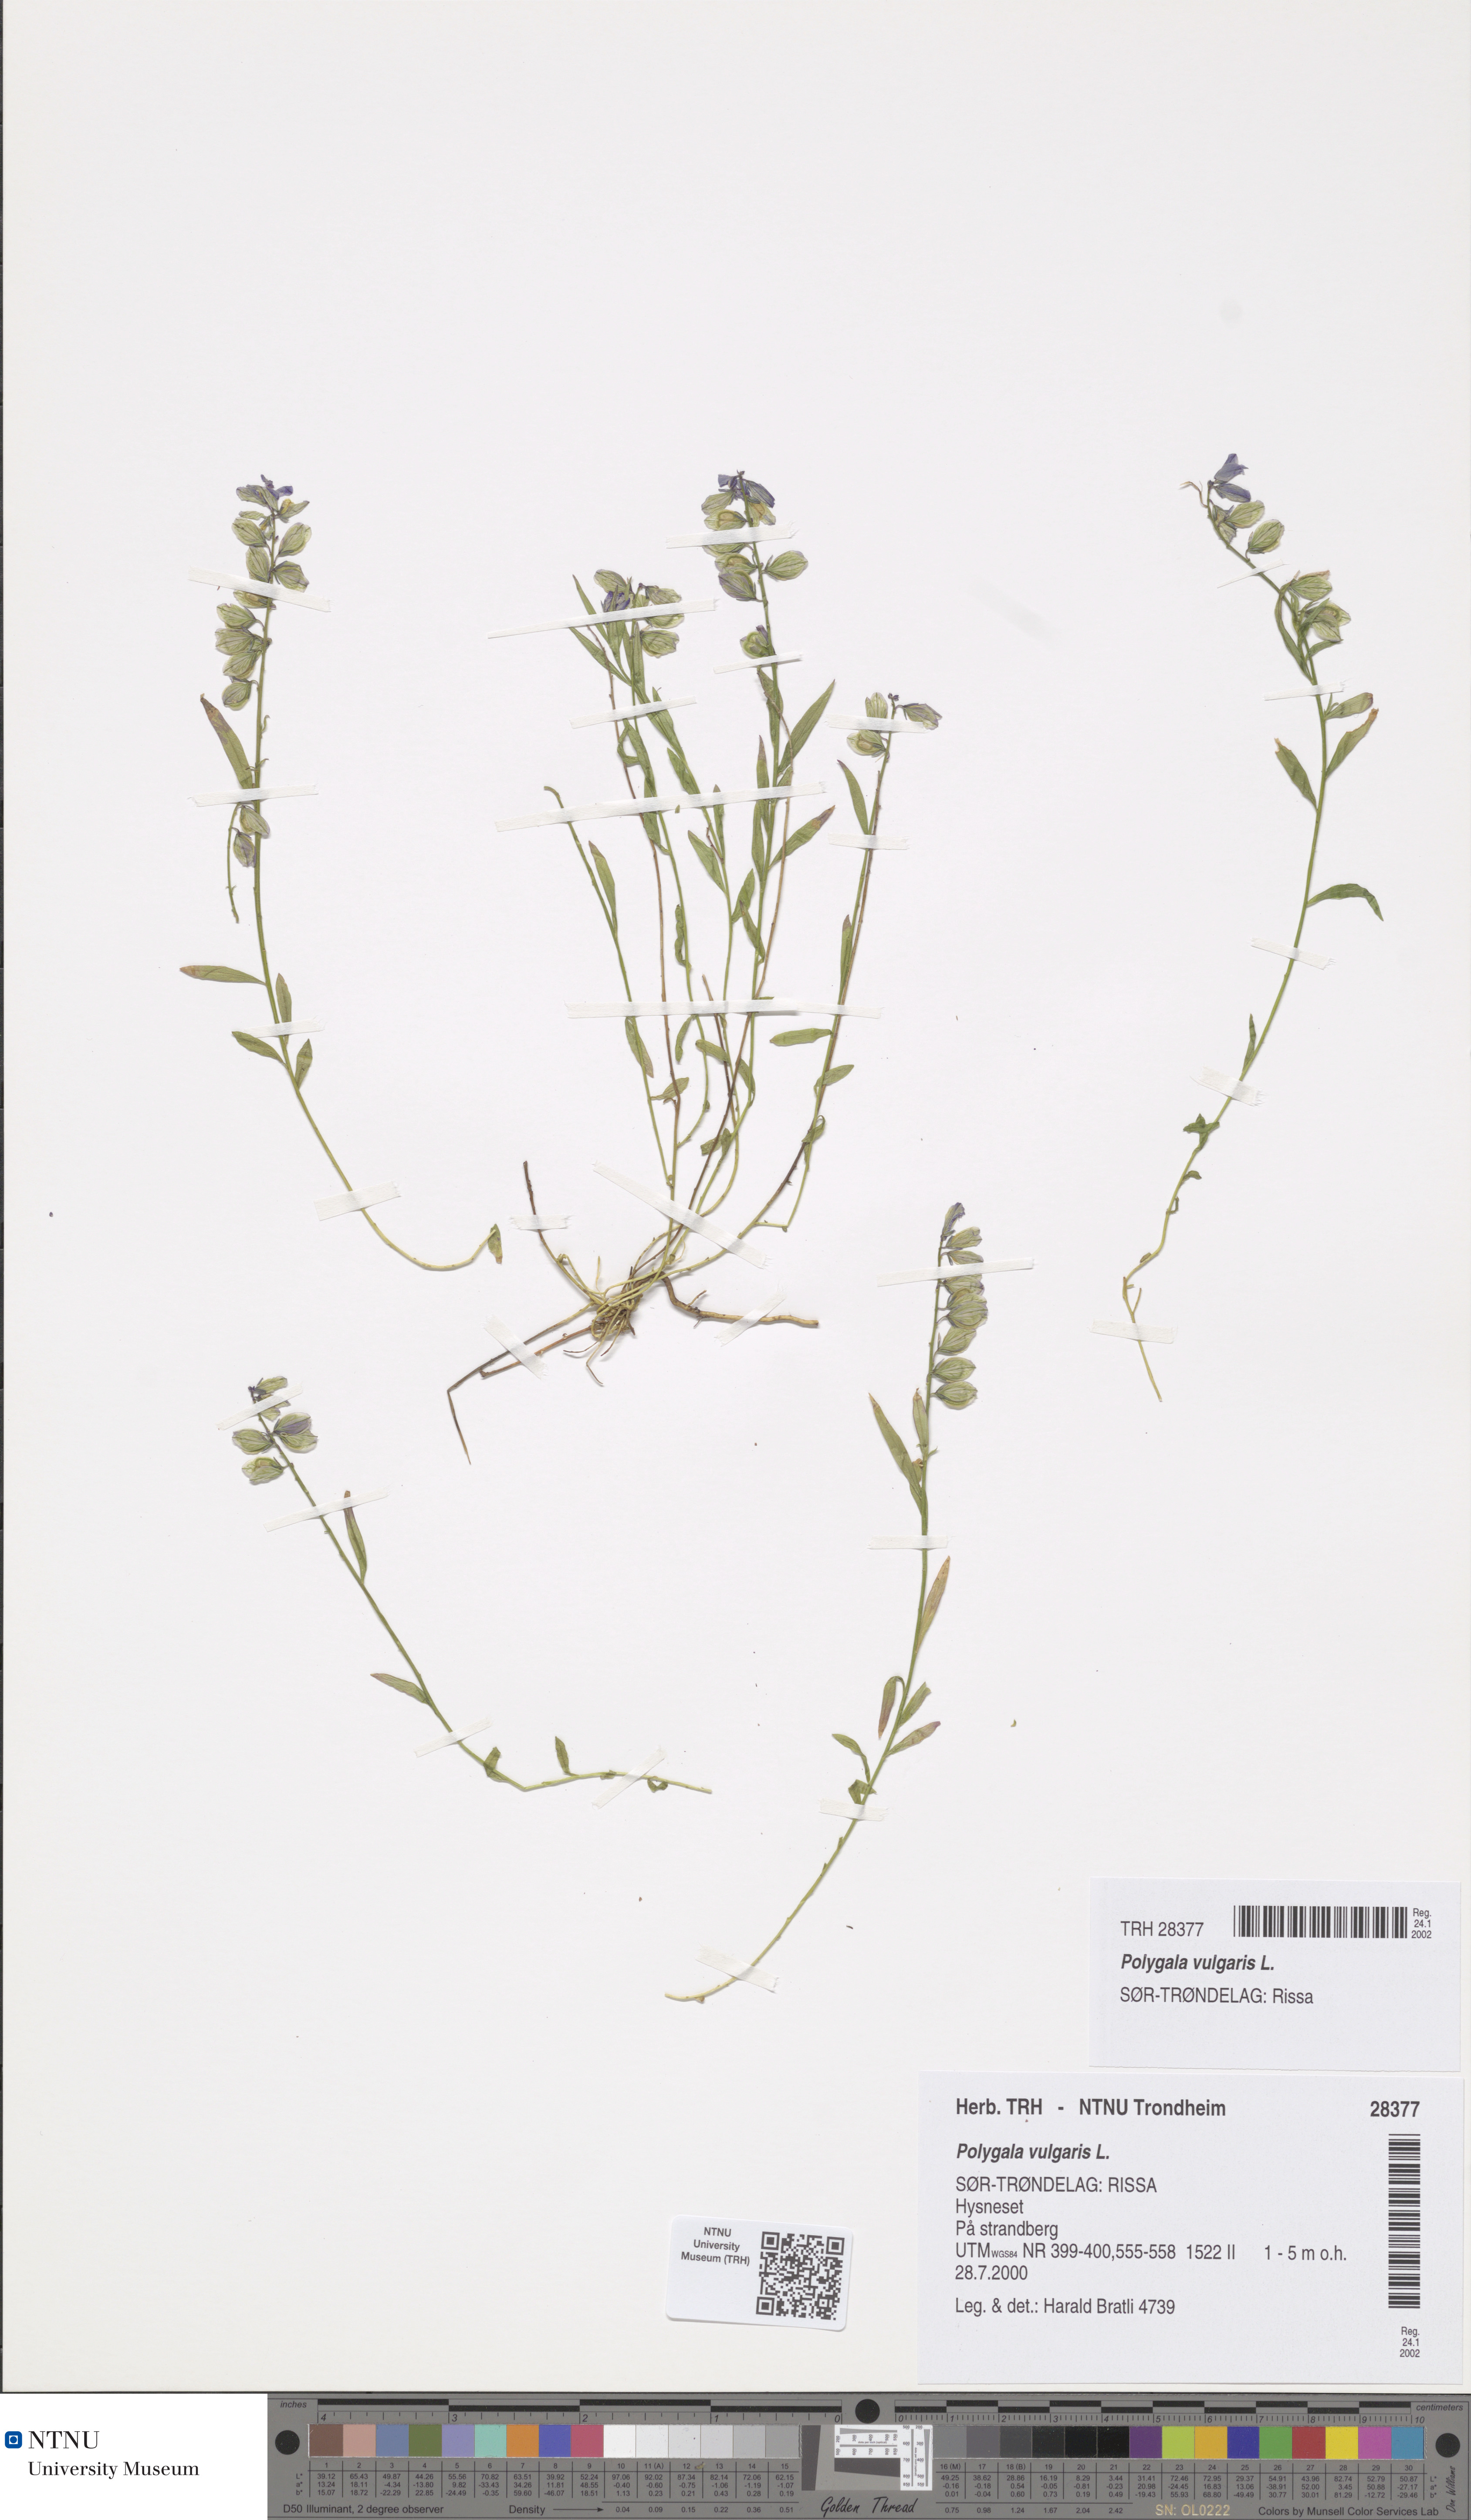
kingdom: Plantae
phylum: Tracheophyta
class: Magnoliopsida
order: Fabales
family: Polygalaceae
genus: Polygala
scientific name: Polygala vulgaris
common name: Common milkwort
